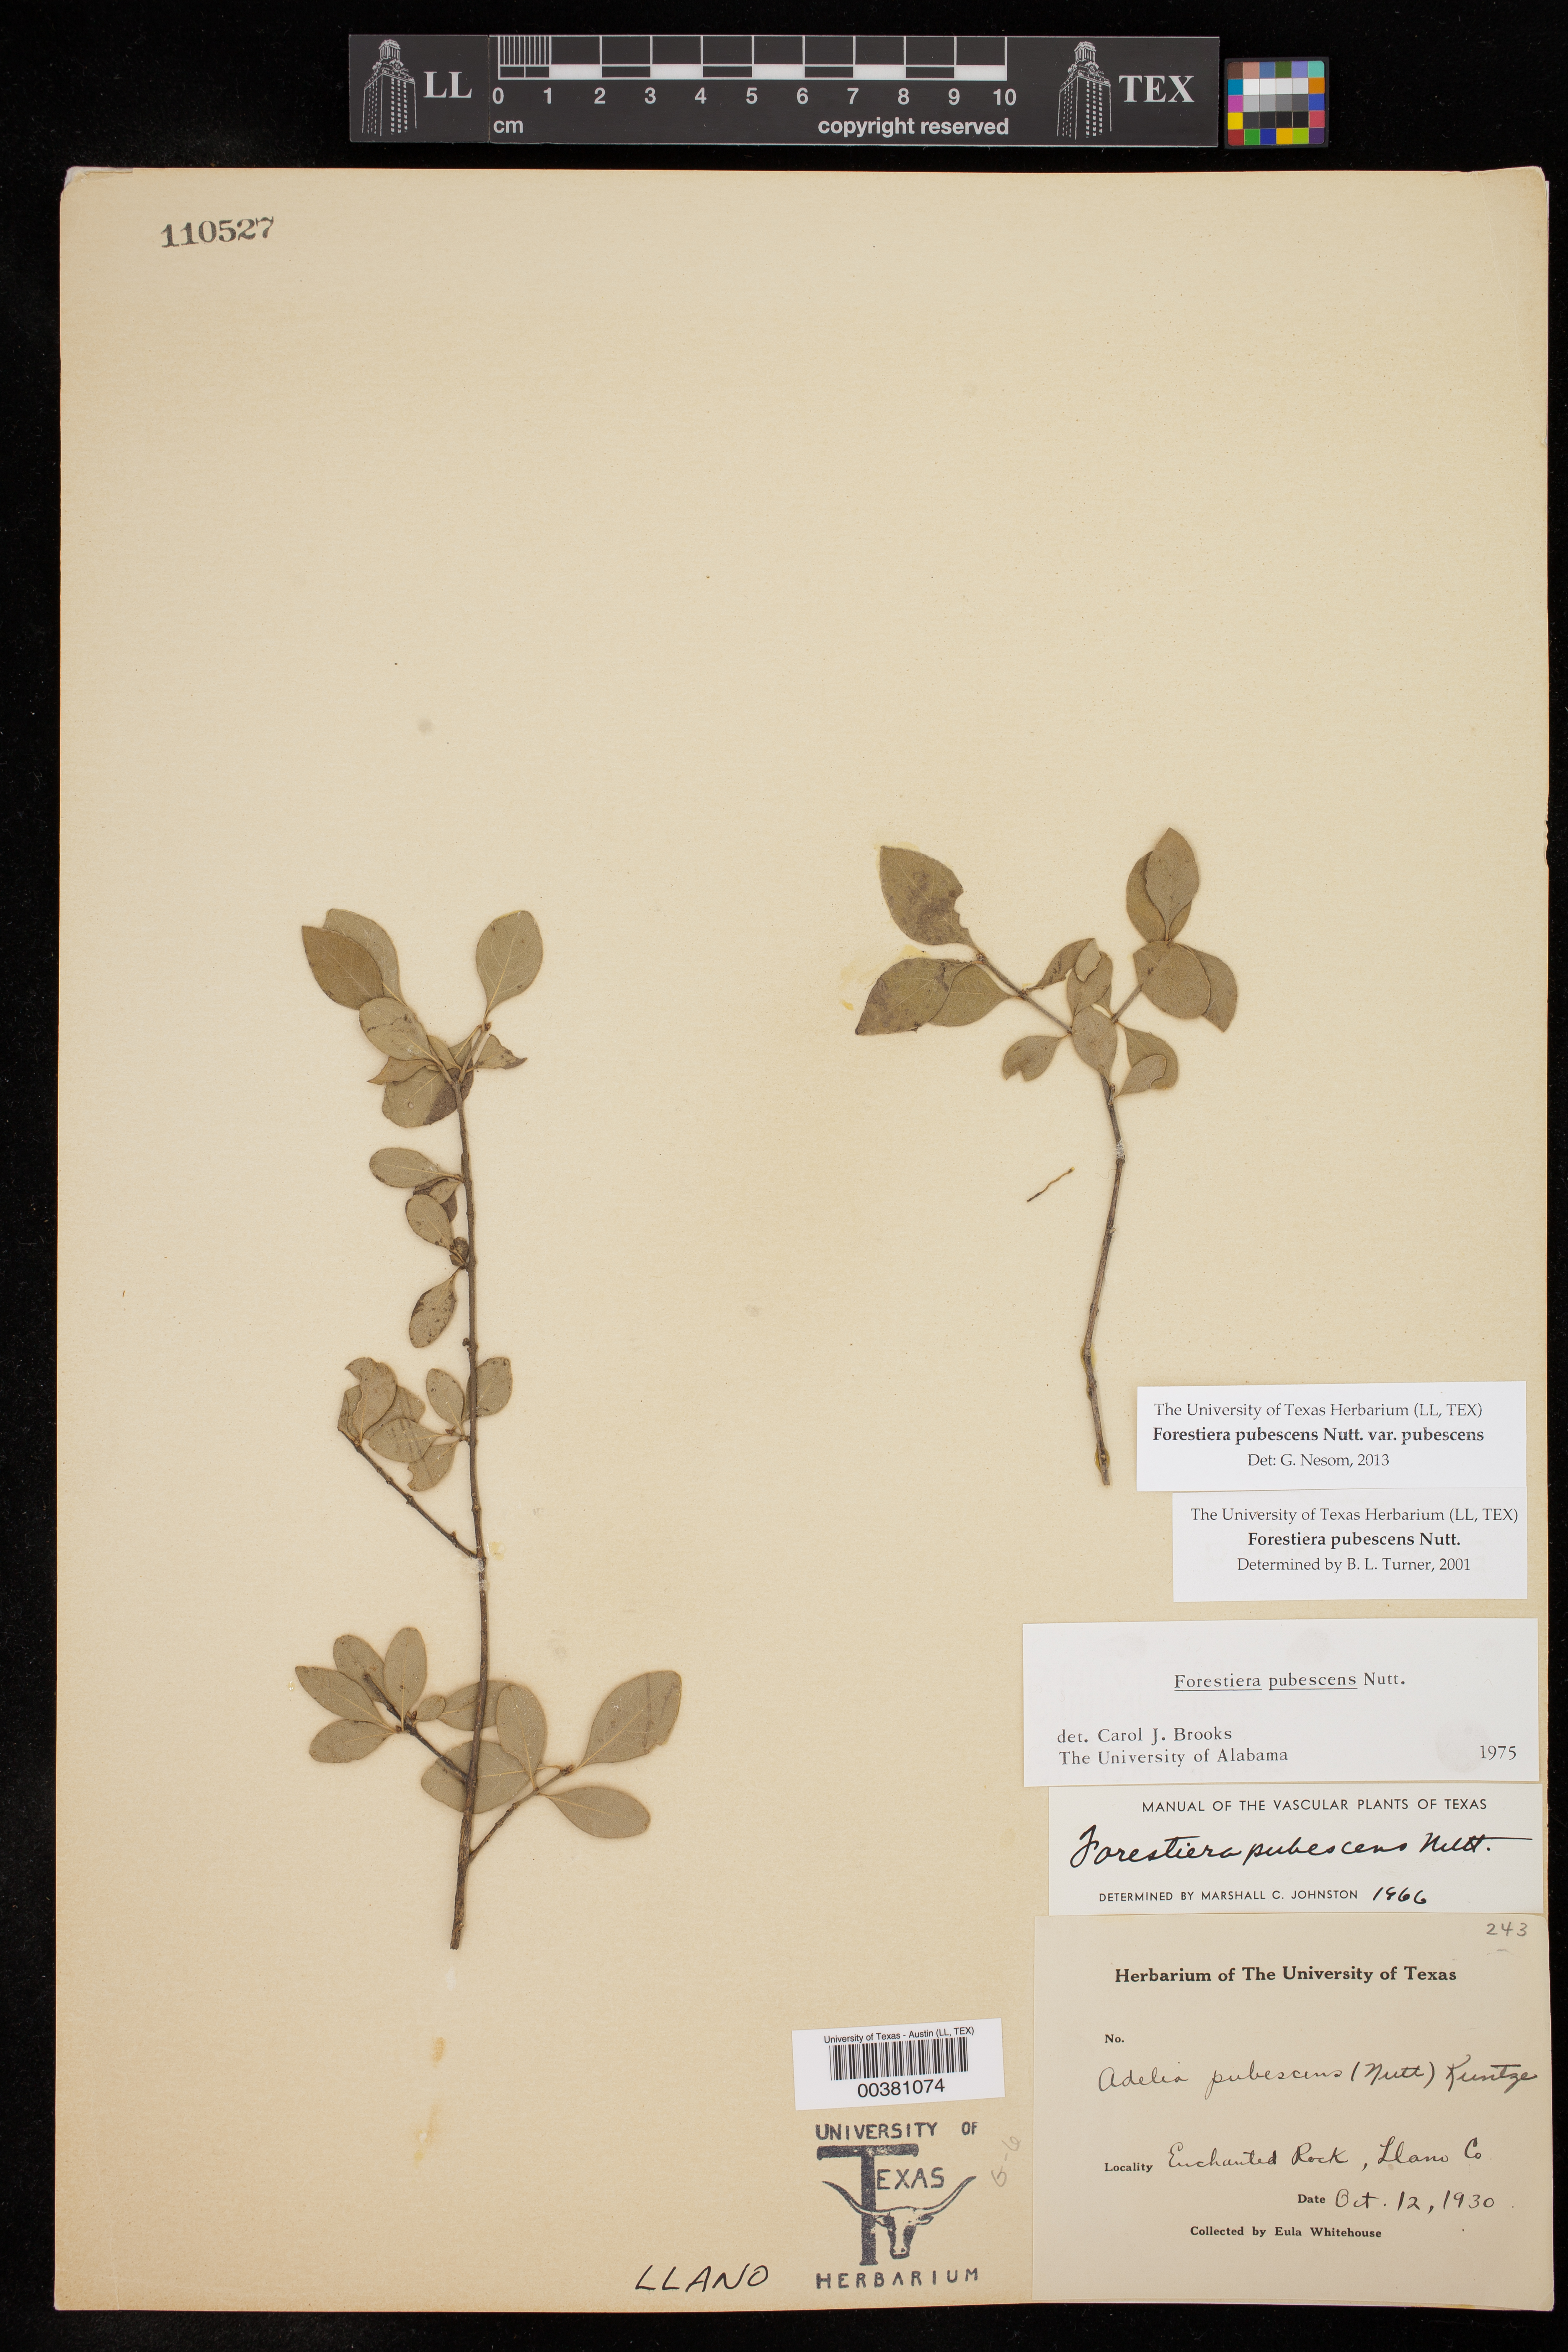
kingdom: Plantae
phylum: Tracheophyta
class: Magnoliopsida
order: Lamiales
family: Oleaceae
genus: Forestiera
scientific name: Forestiera pubescens
